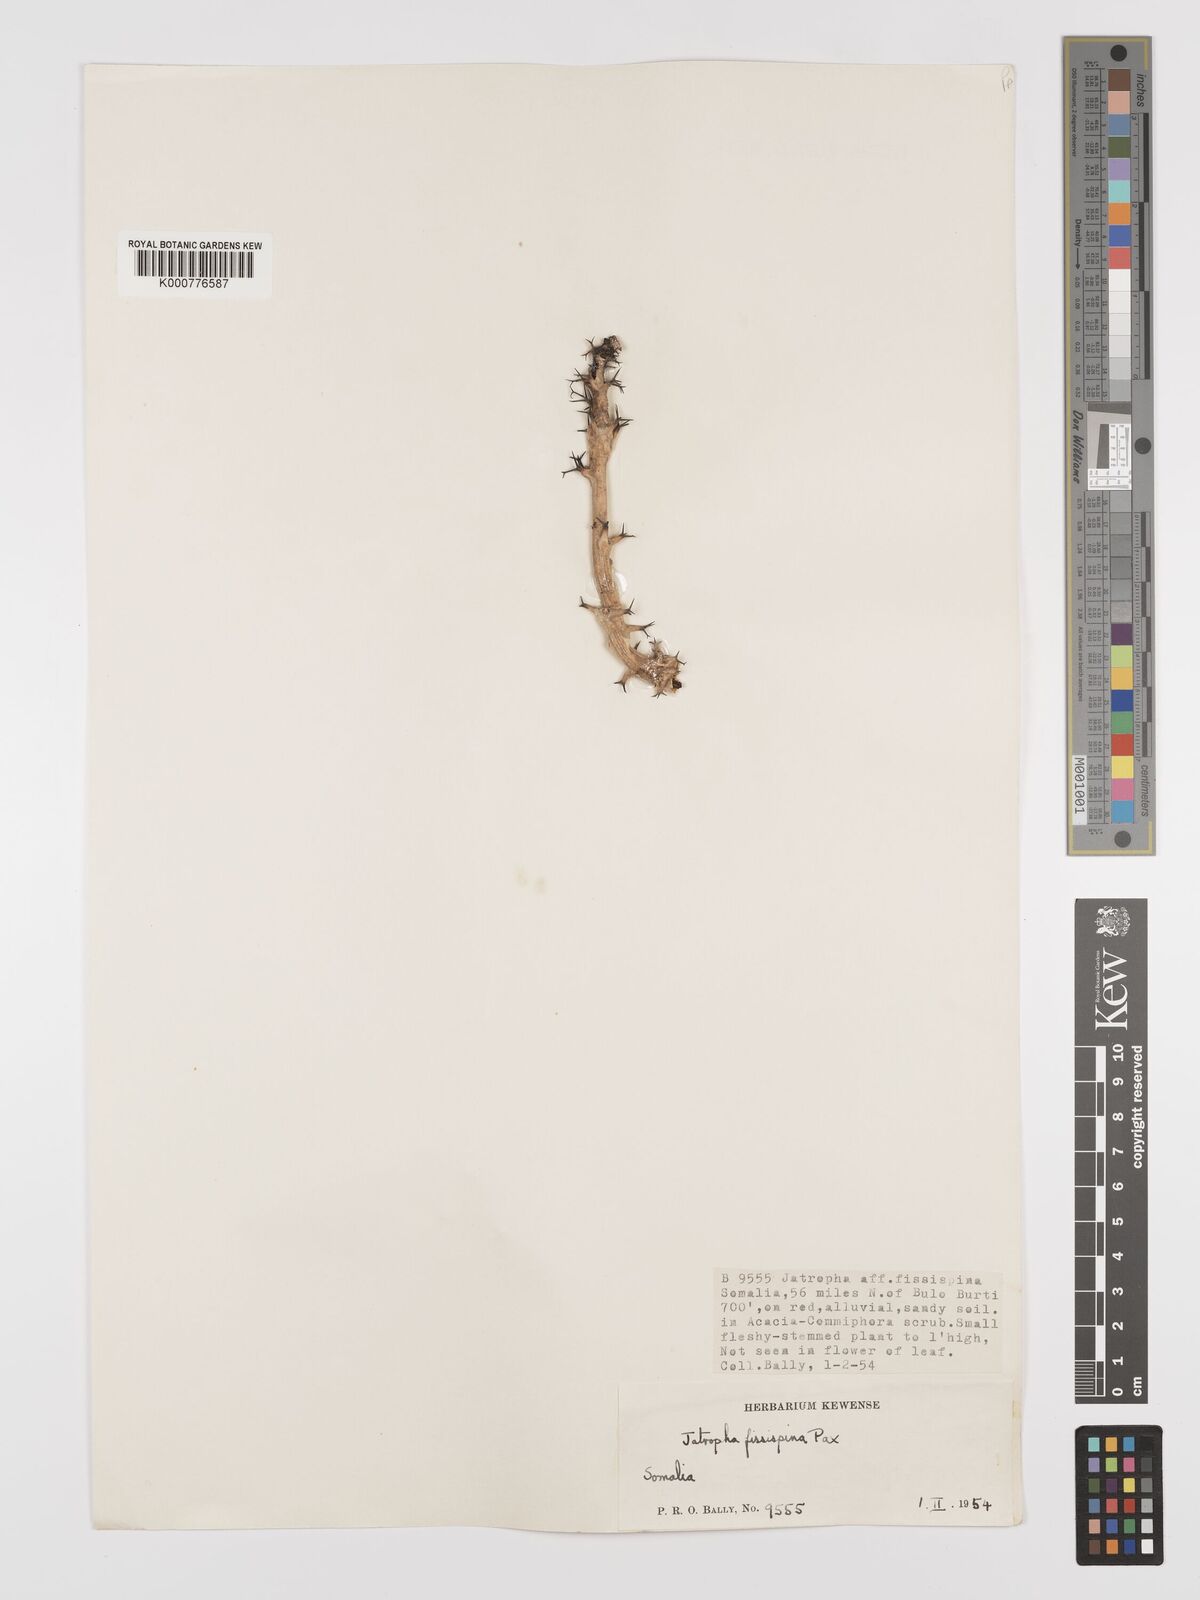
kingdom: Plantae
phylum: Tracheophyta
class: Magnoliopsida
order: Malpighiales
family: Euphorbiaceae
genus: Jatropha
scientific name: Jatropha ellenbeckii
